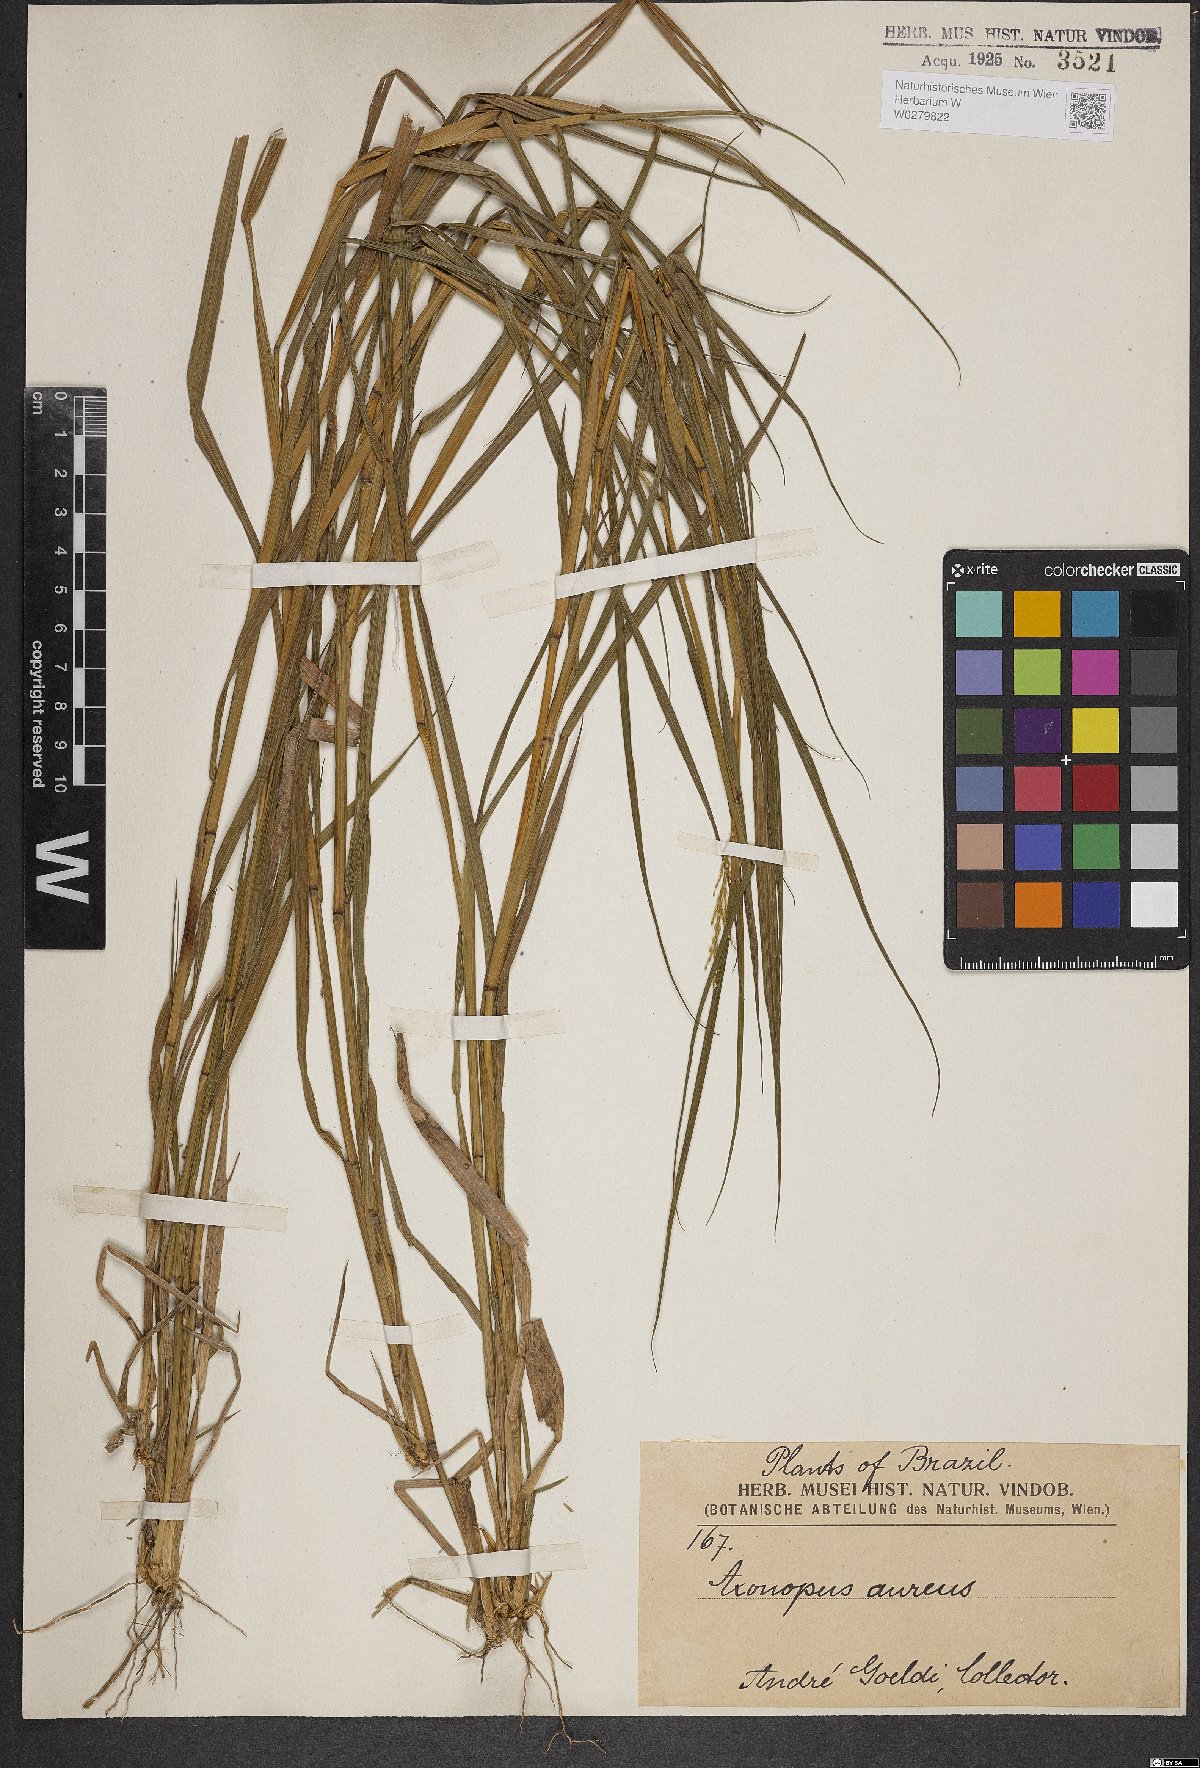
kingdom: Plantae
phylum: Tracheophyta
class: Liliopsida
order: Poales
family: Poaceae
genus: Axonopus
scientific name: Axonopus aureus
